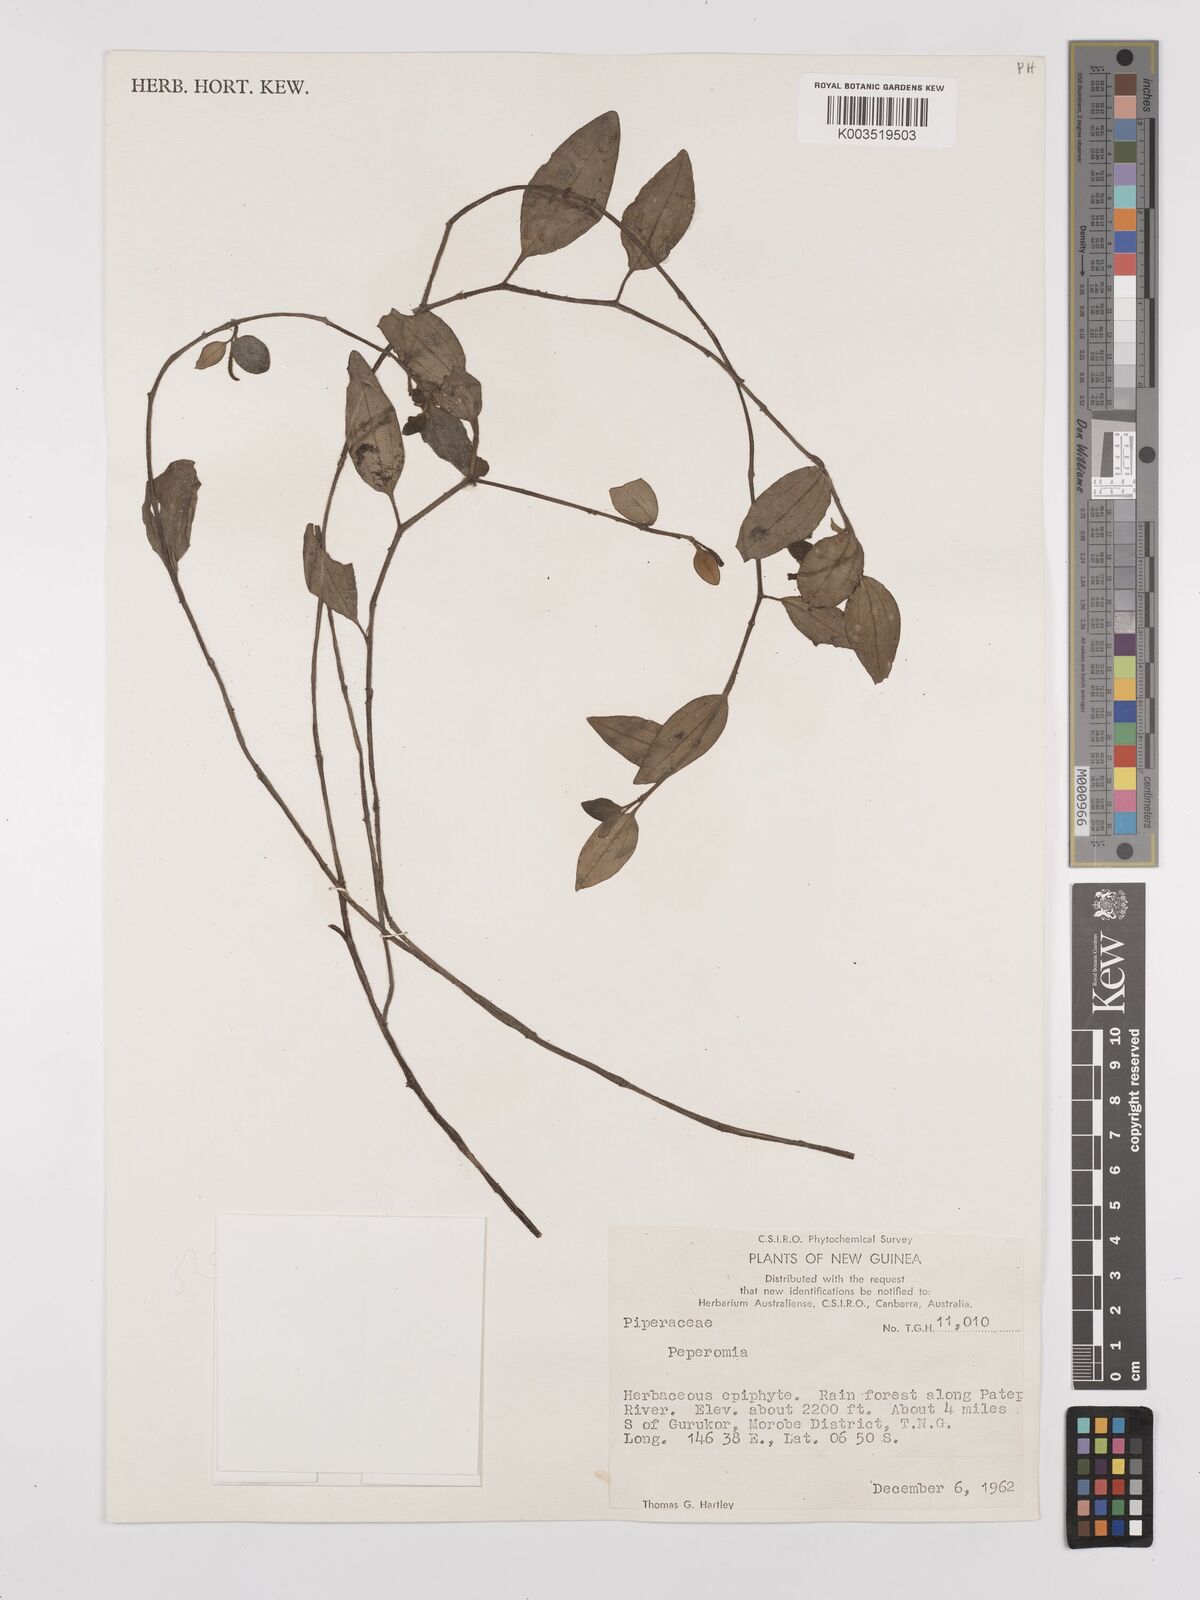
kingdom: Plantae
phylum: Tracheophyta
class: Magnoliopsida
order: Piperales
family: Piperaceae
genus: Peperomia
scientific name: Peperomia
